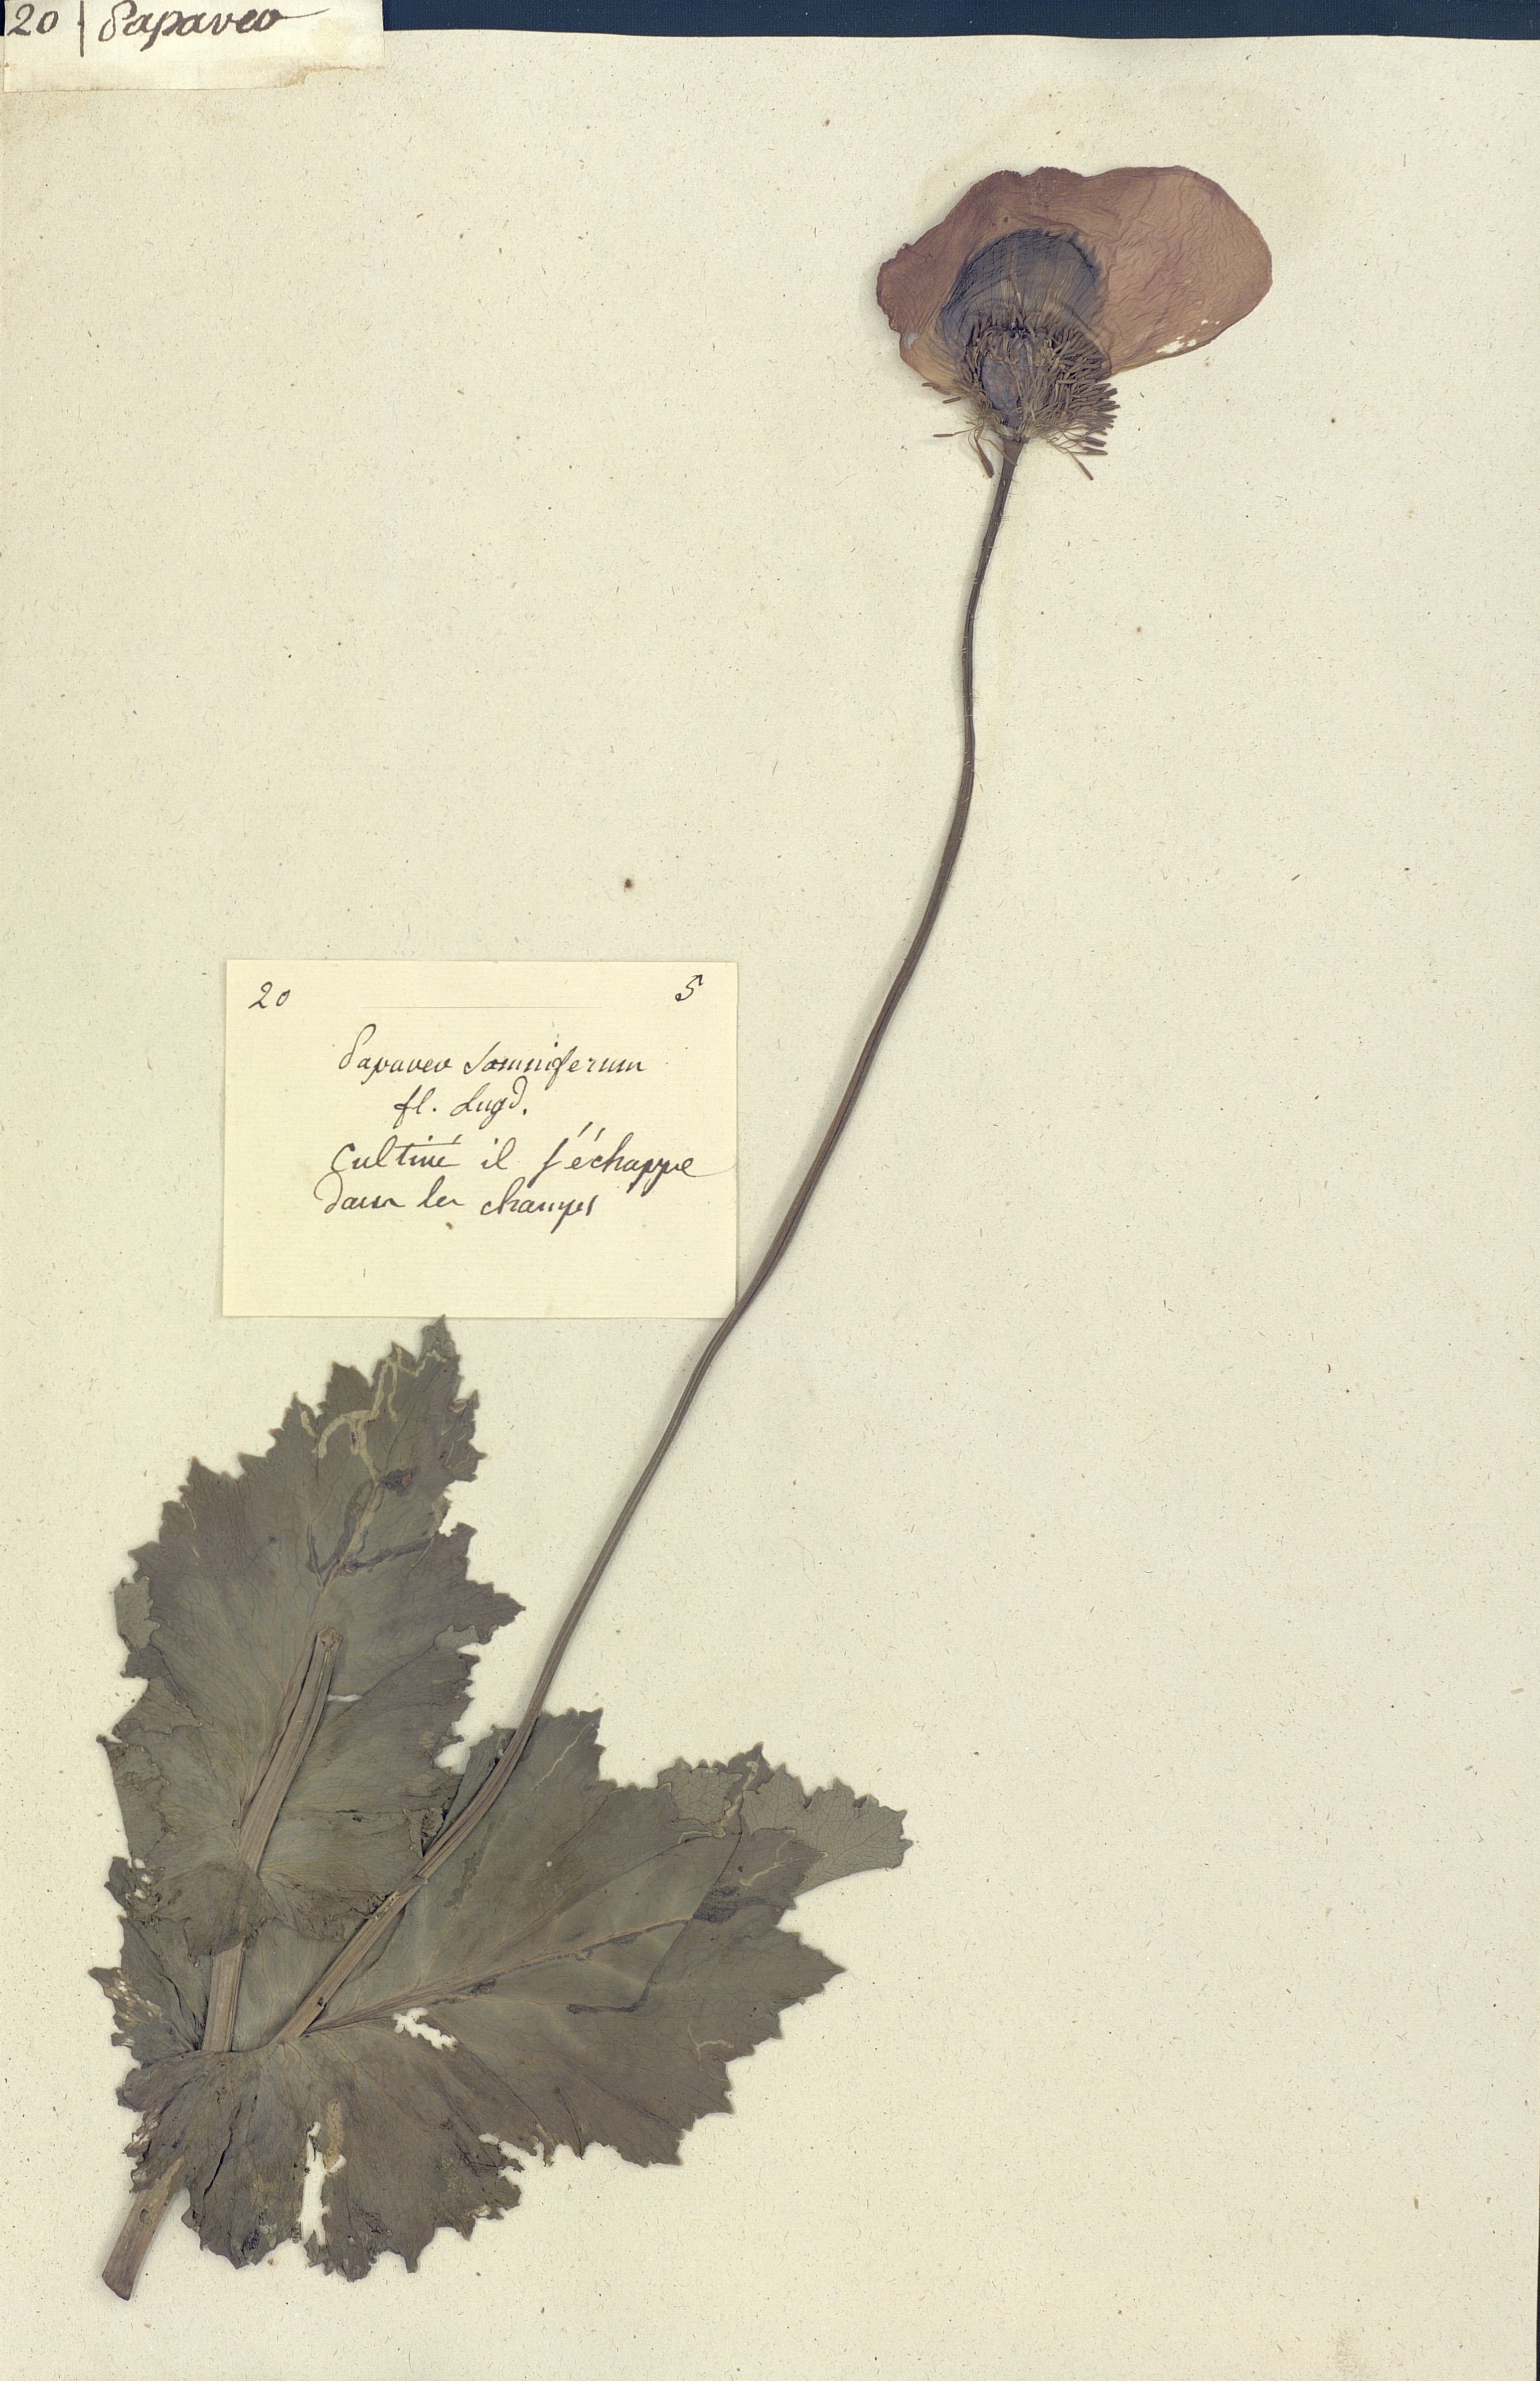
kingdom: Plantae
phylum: Tracheophyta
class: Magnoliopsida
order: Ranunculales
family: Papaveraceae
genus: Papaver
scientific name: Papaver somniferum
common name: Opium poppy
